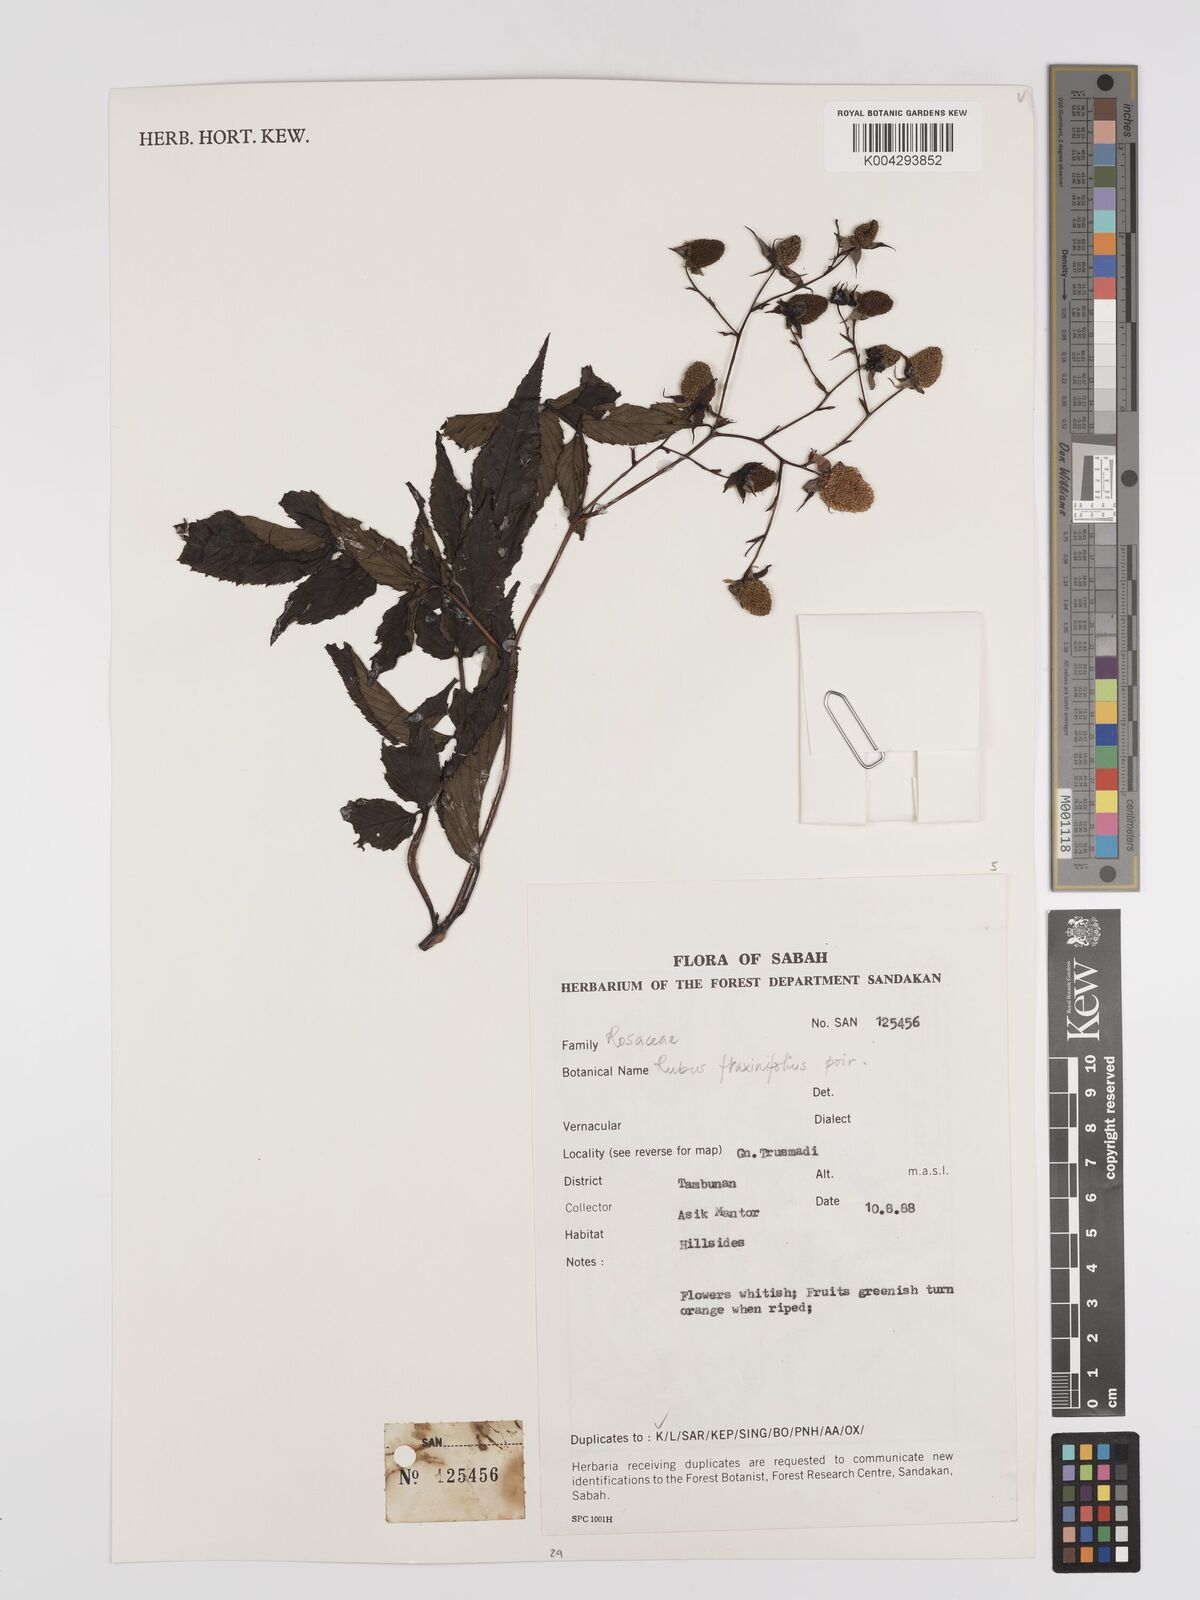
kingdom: Plantae
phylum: Tracheophyta
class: Magnoliopsida
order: Rosales
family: Rosaceae
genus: Rubus
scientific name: Rubus fraxinifolius
